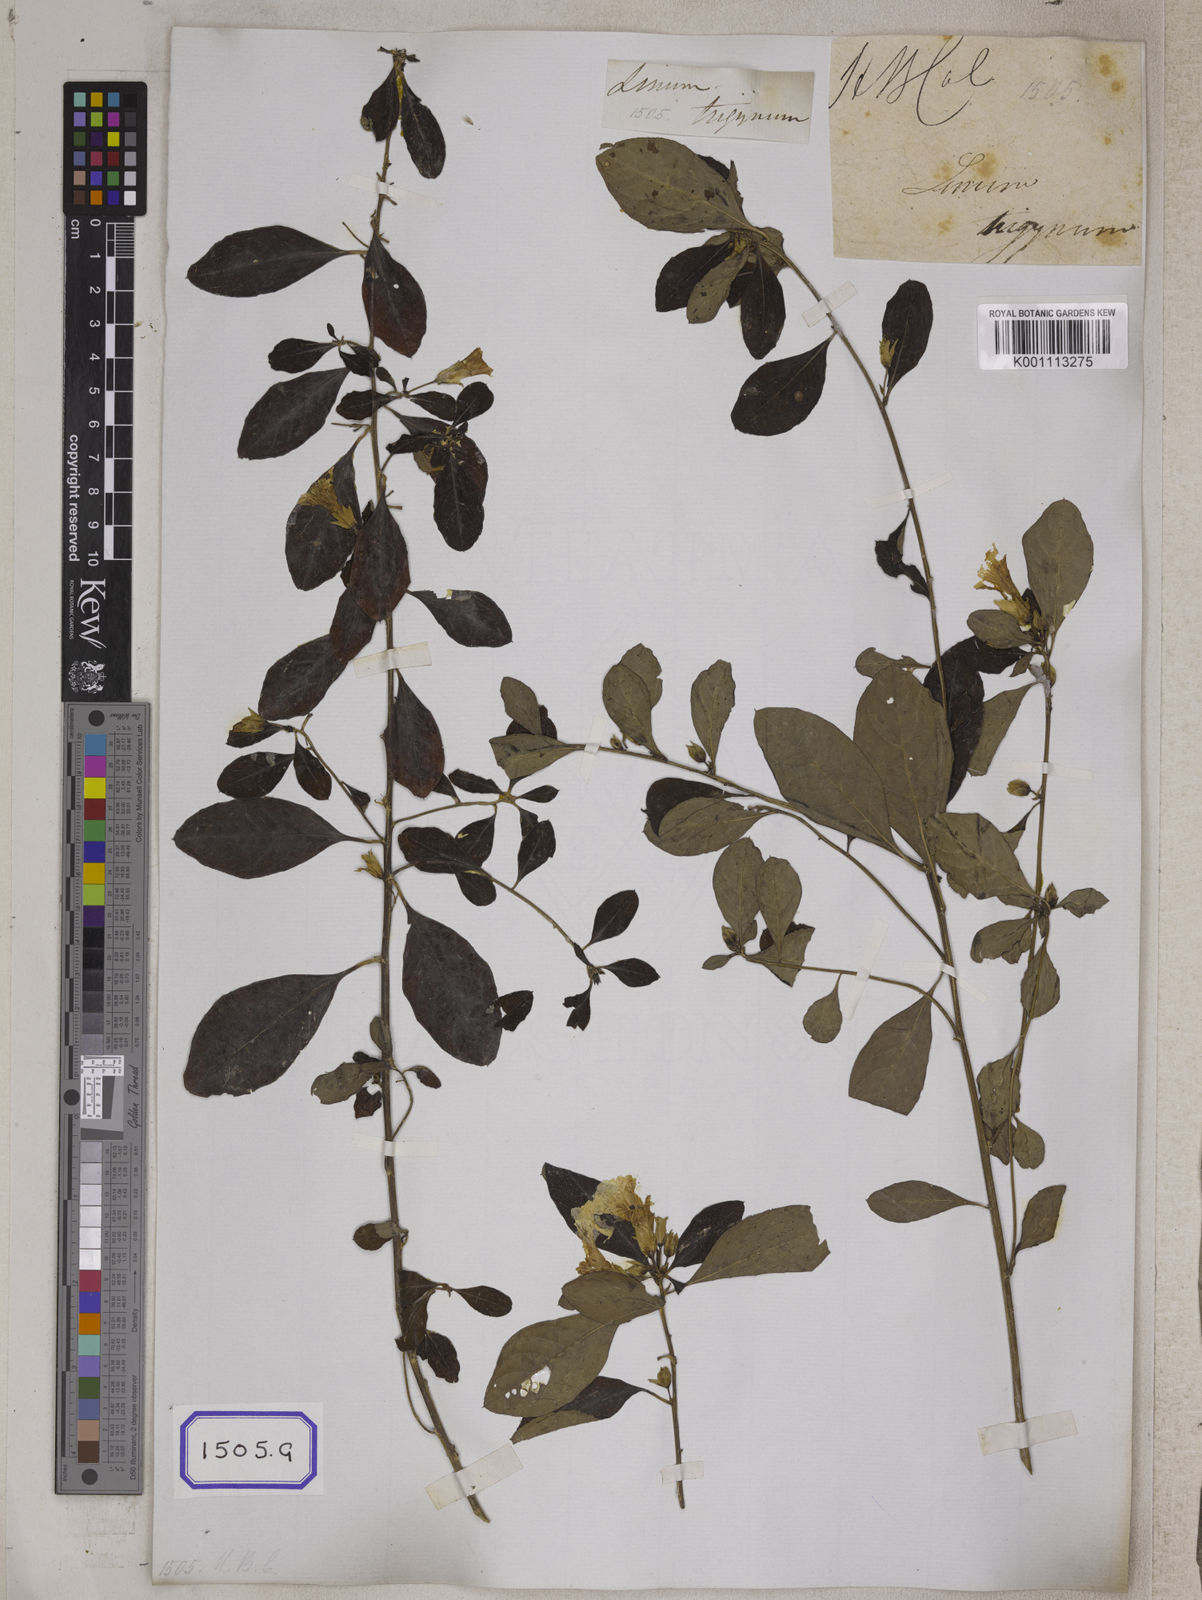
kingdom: Plantae
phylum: Tracheophyta
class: Magnoliopsida
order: Malpighiales
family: Linaceae
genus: Linum
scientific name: Linum
